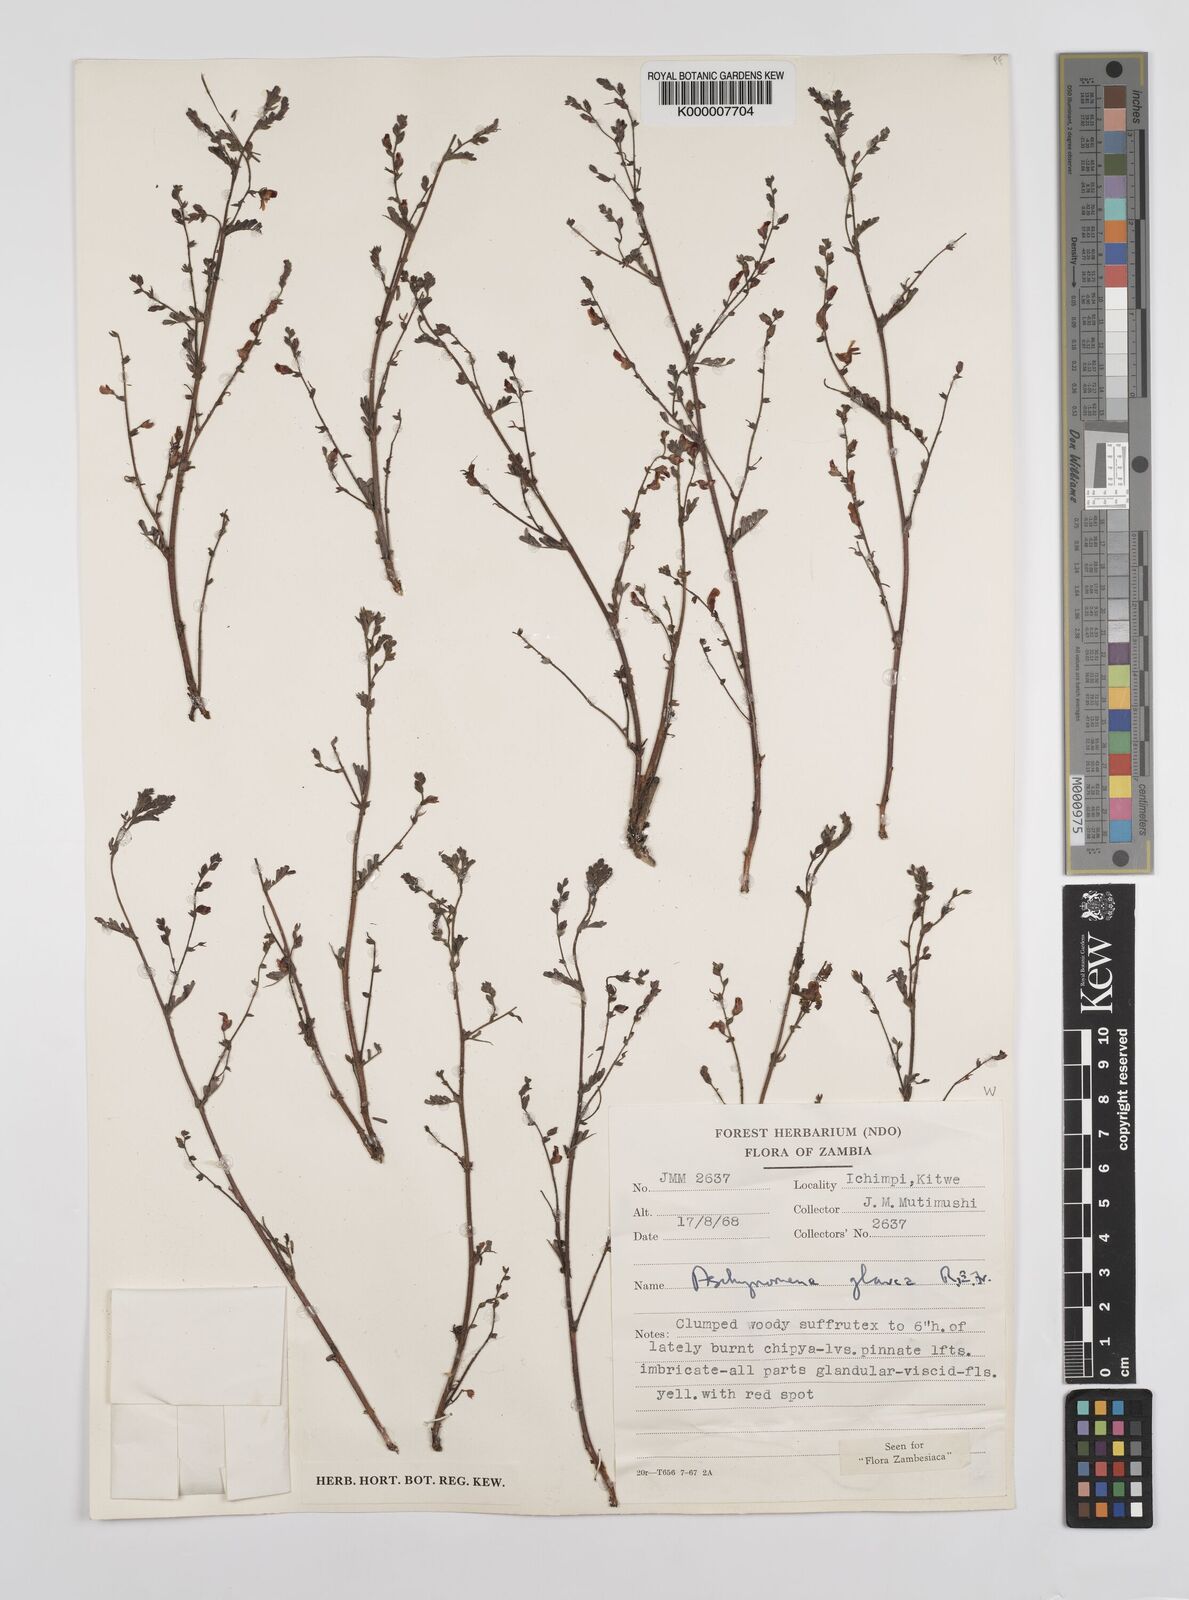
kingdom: Plantae
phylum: Tracheophyta
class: Magnoliopsida
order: Fabales
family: Fabaceae
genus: Aeschynomene
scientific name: Aeschynomene glauca
